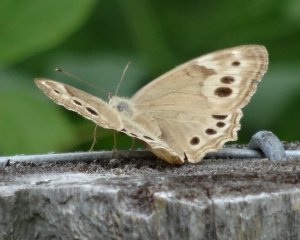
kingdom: Animalia
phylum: Arthropoda
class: Insecta
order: Lepidoptera
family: Nymphalidae
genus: Lethe
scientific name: Lethe anthedon
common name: Northern Pearly-Eye
